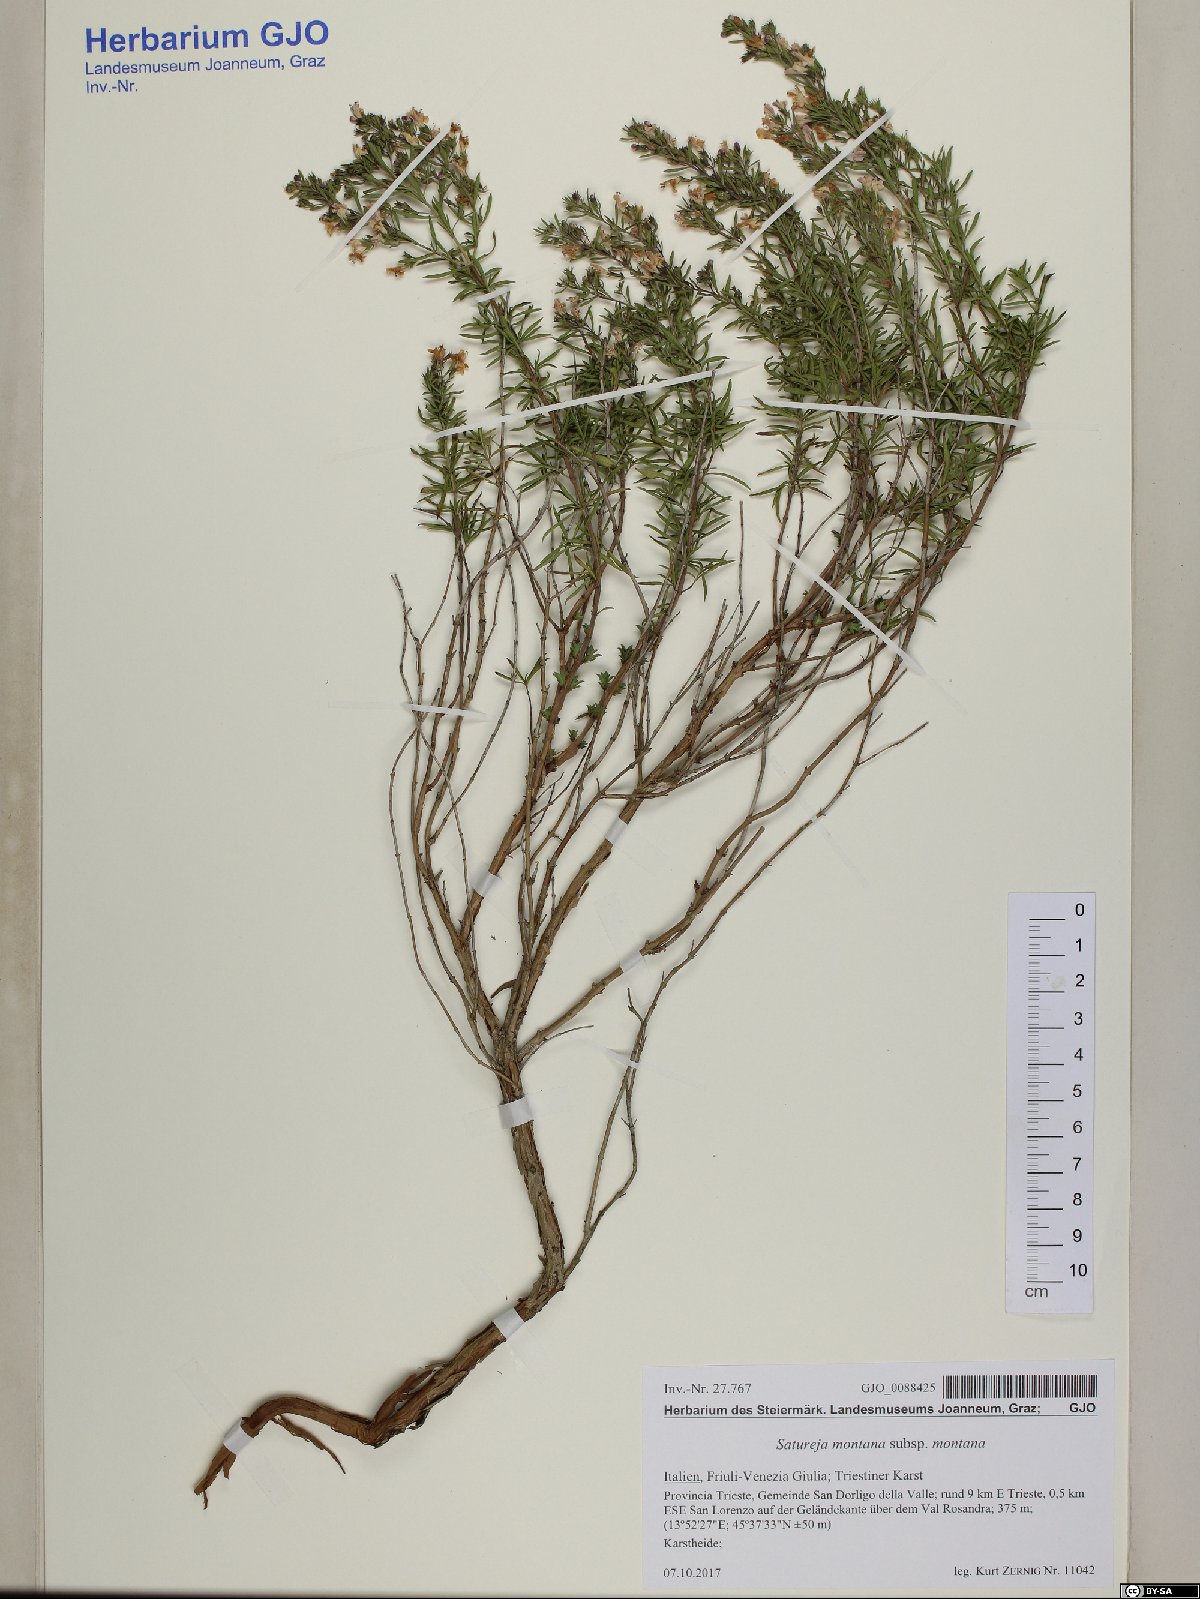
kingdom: Plantae
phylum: Tracheophyta
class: Magnoliopsida
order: Lamiales
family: Lamiaceae
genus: Satureja
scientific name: Satureja montana
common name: Winter savory
